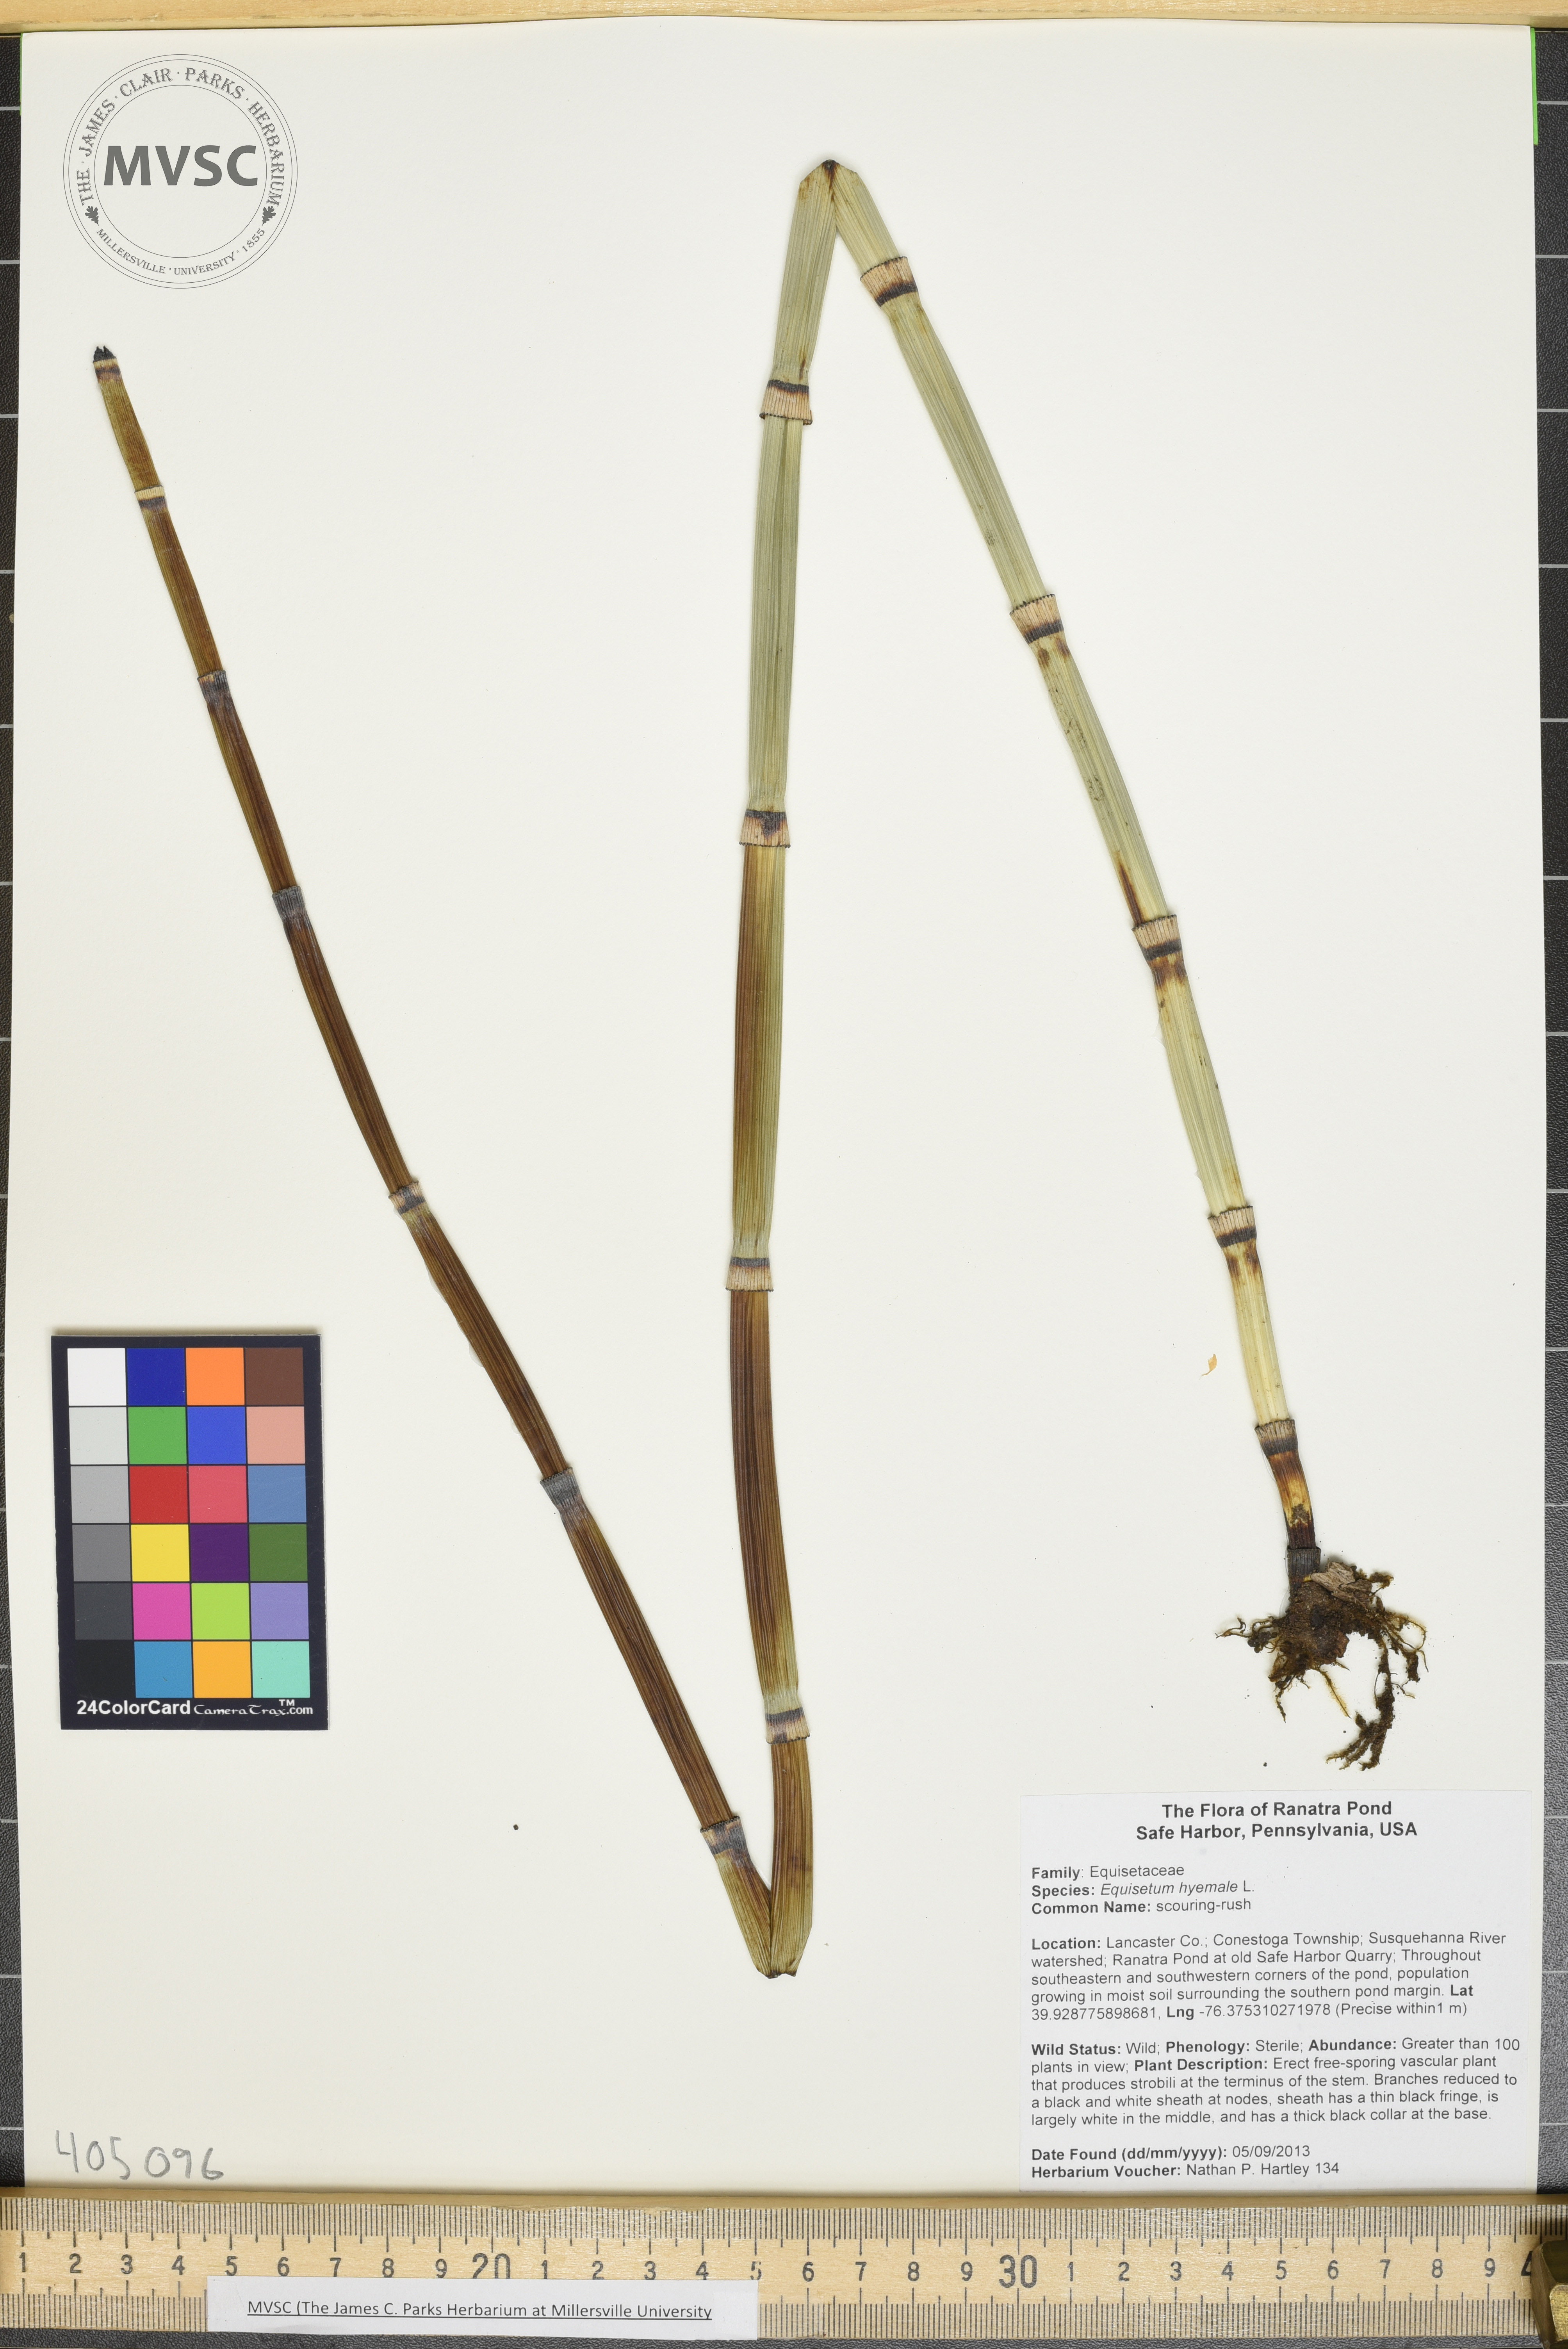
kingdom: Plantae
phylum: Tracheophyta
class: Polypodiopsida
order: Equisetales
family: Equisetaceae
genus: Equisetum
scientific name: Equisetum hyemale
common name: scouring-rush
